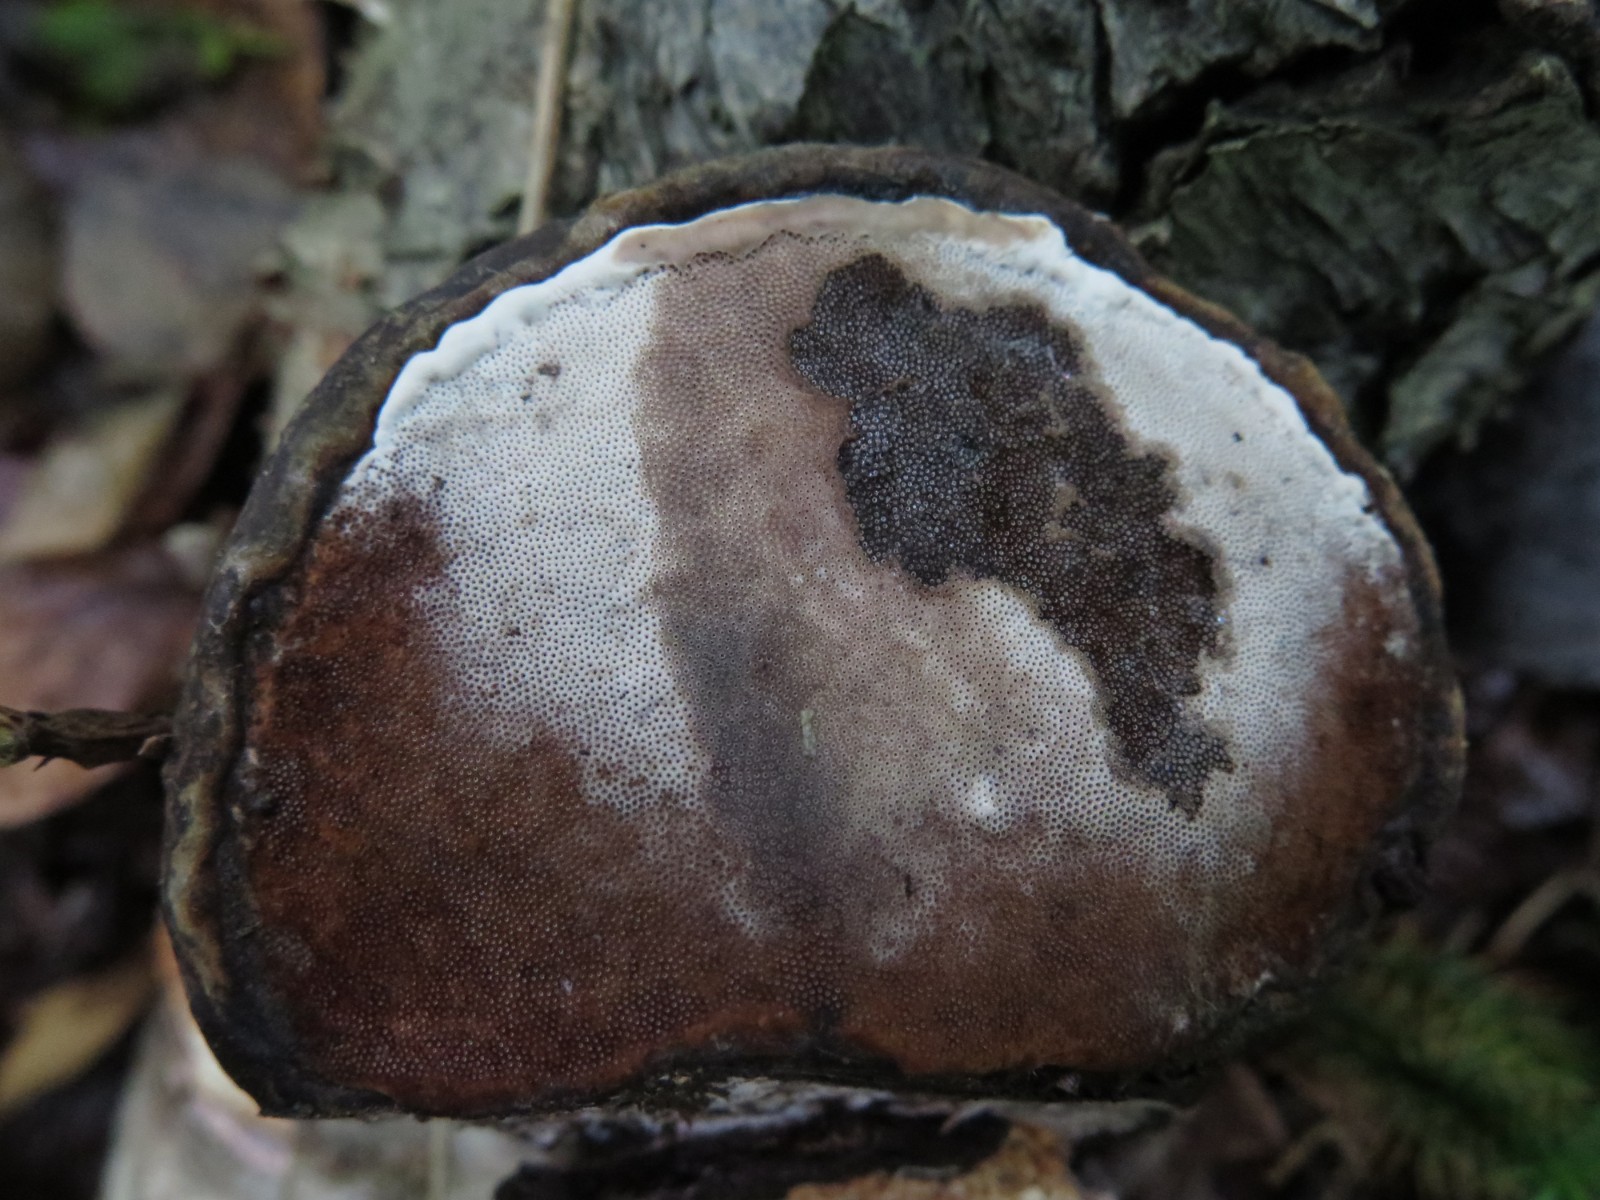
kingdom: Fungi
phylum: Basidiomycota
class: Agaricomycetes
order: Cantharellales
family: Hydnaceae
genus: Sistotrema
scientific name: Sistotrema brinkmannii
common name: bønnesporet kroneskorpe
